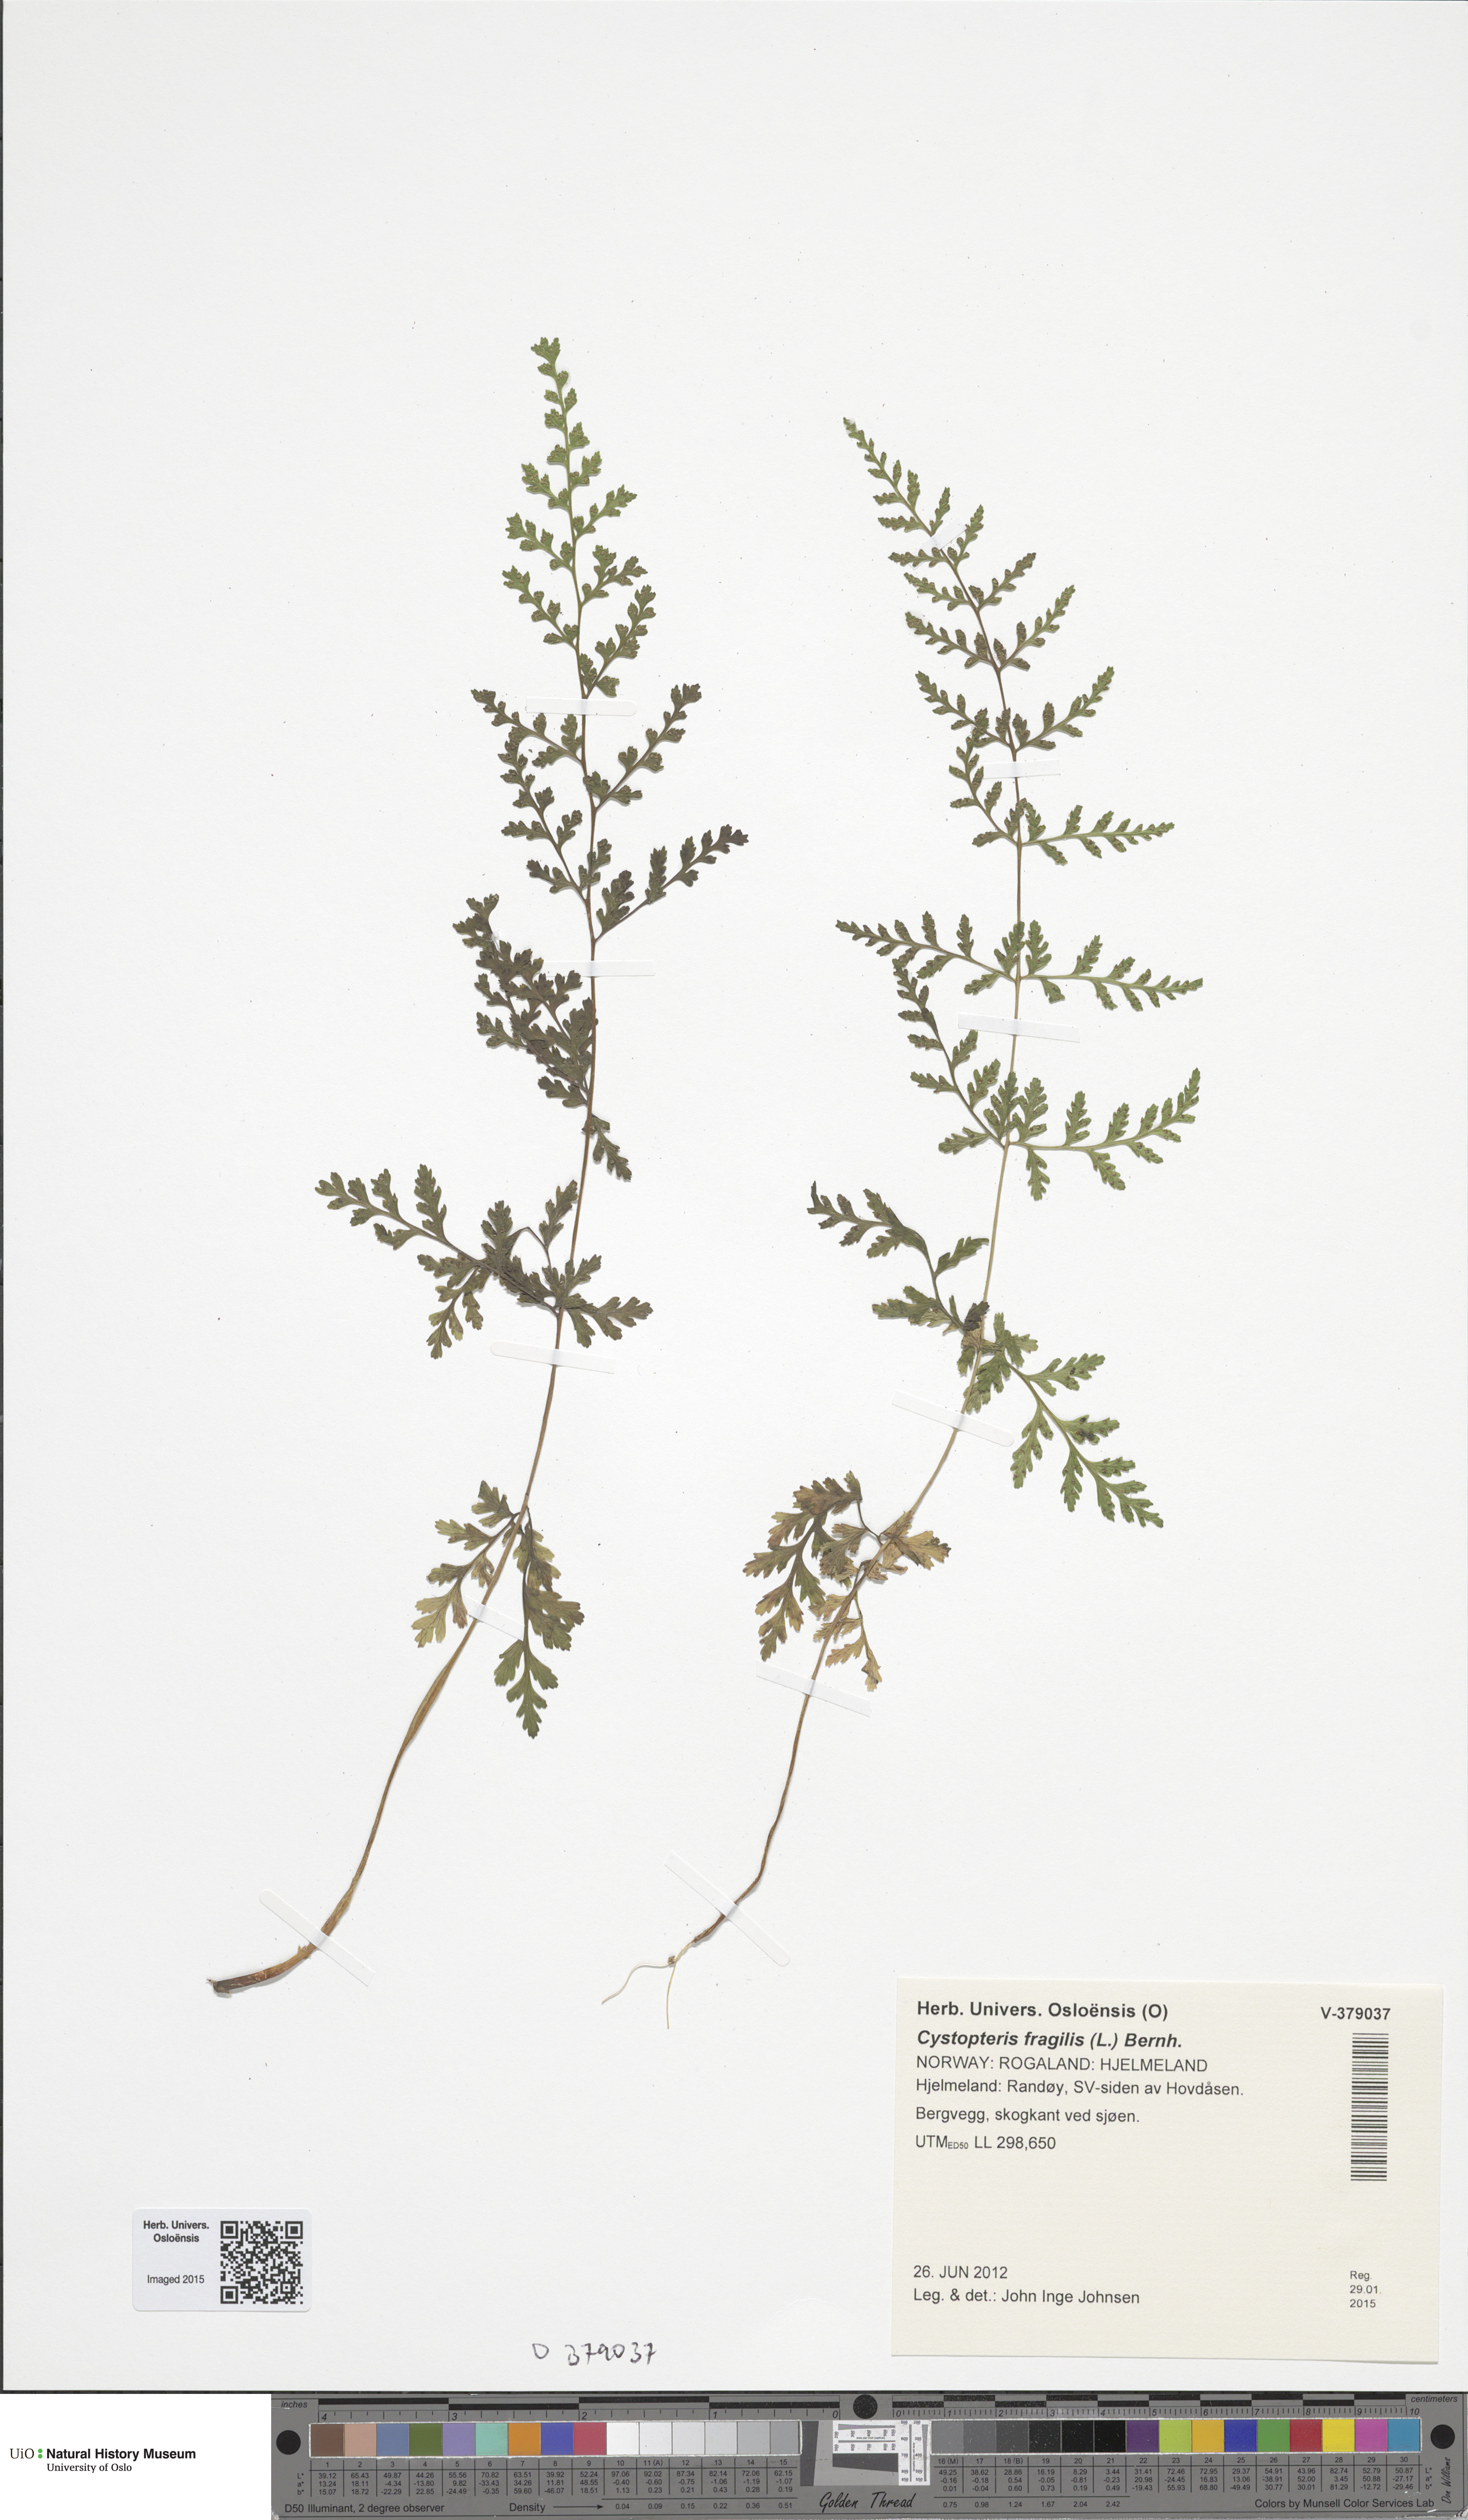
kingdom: Plantae
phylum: Tracheophyta
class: Polypodiopsida
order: Polypodiales
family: Cystopteridaceae
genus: Cystopteris
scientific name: Cystopteris fragilis
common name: Brittle bladder fern
